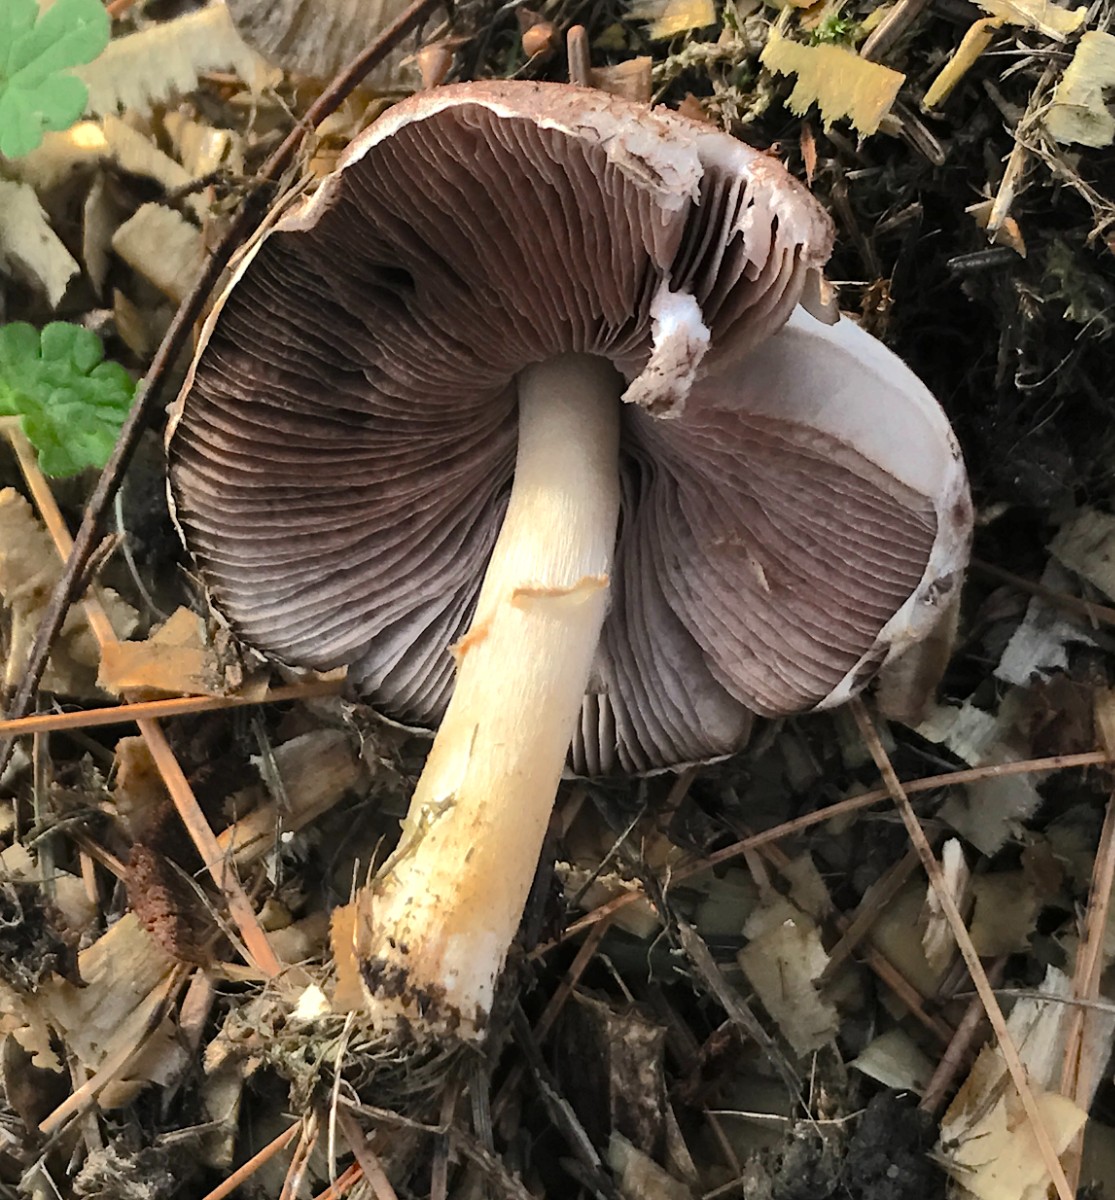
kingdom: Fungi
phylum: Basidiomycota
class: Agaricomycetes
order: Agaricales
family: Agaricaceae
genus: Agaricus
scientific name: Agaricus
